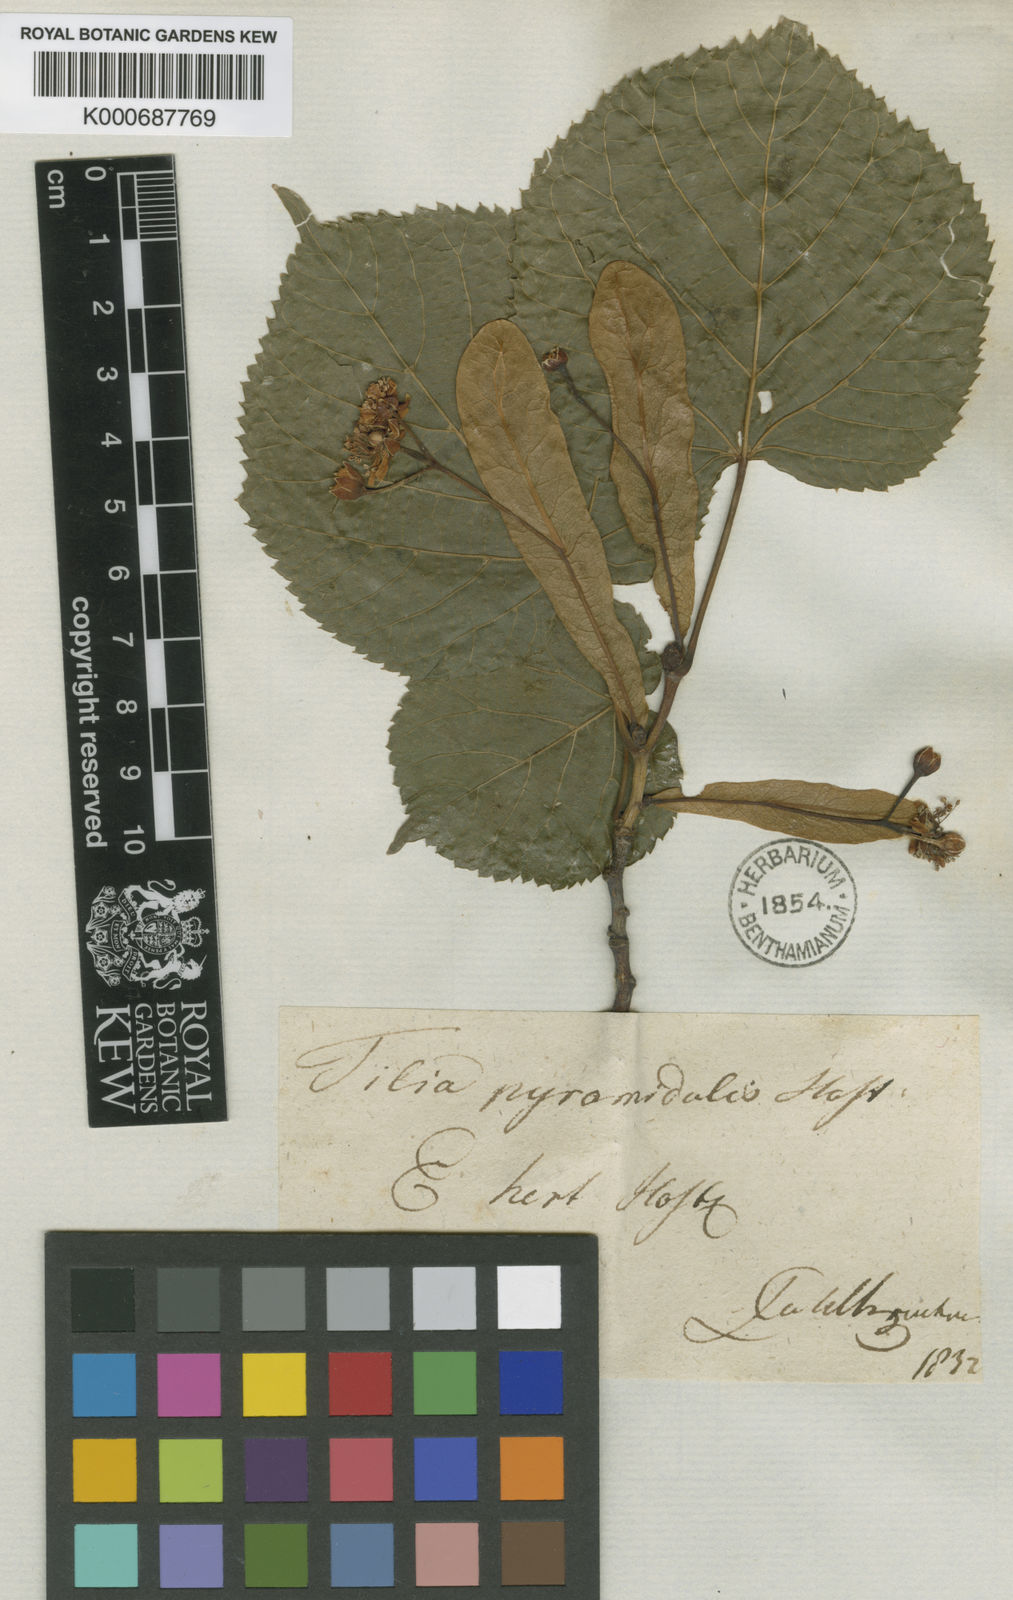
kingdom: Plantae
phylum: Tracheophyta
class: Magnoliopsida
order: Malvales
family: Malvaceae
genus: Tilia
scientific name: Tilia platyphyllos
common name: Large-leaved lime
